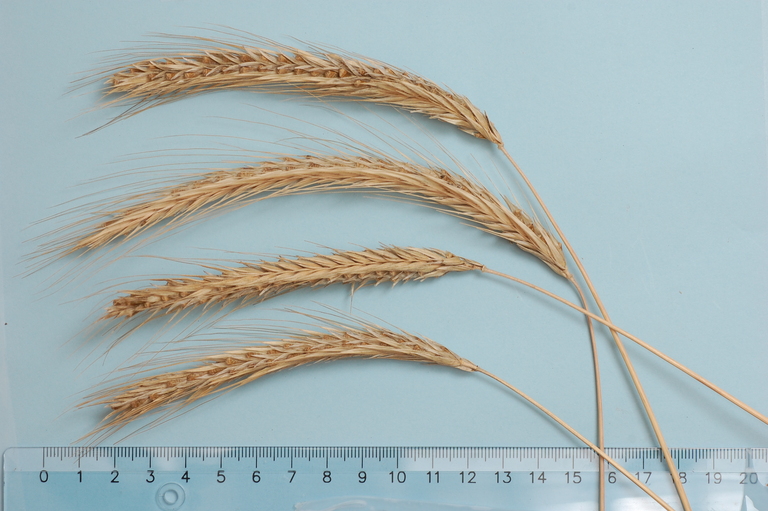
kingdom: Plantae
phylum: Tracheophyta
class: Liliopsida
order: Poales
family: Poaceae
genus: Secale
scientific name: Secale cereale
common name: Rye
